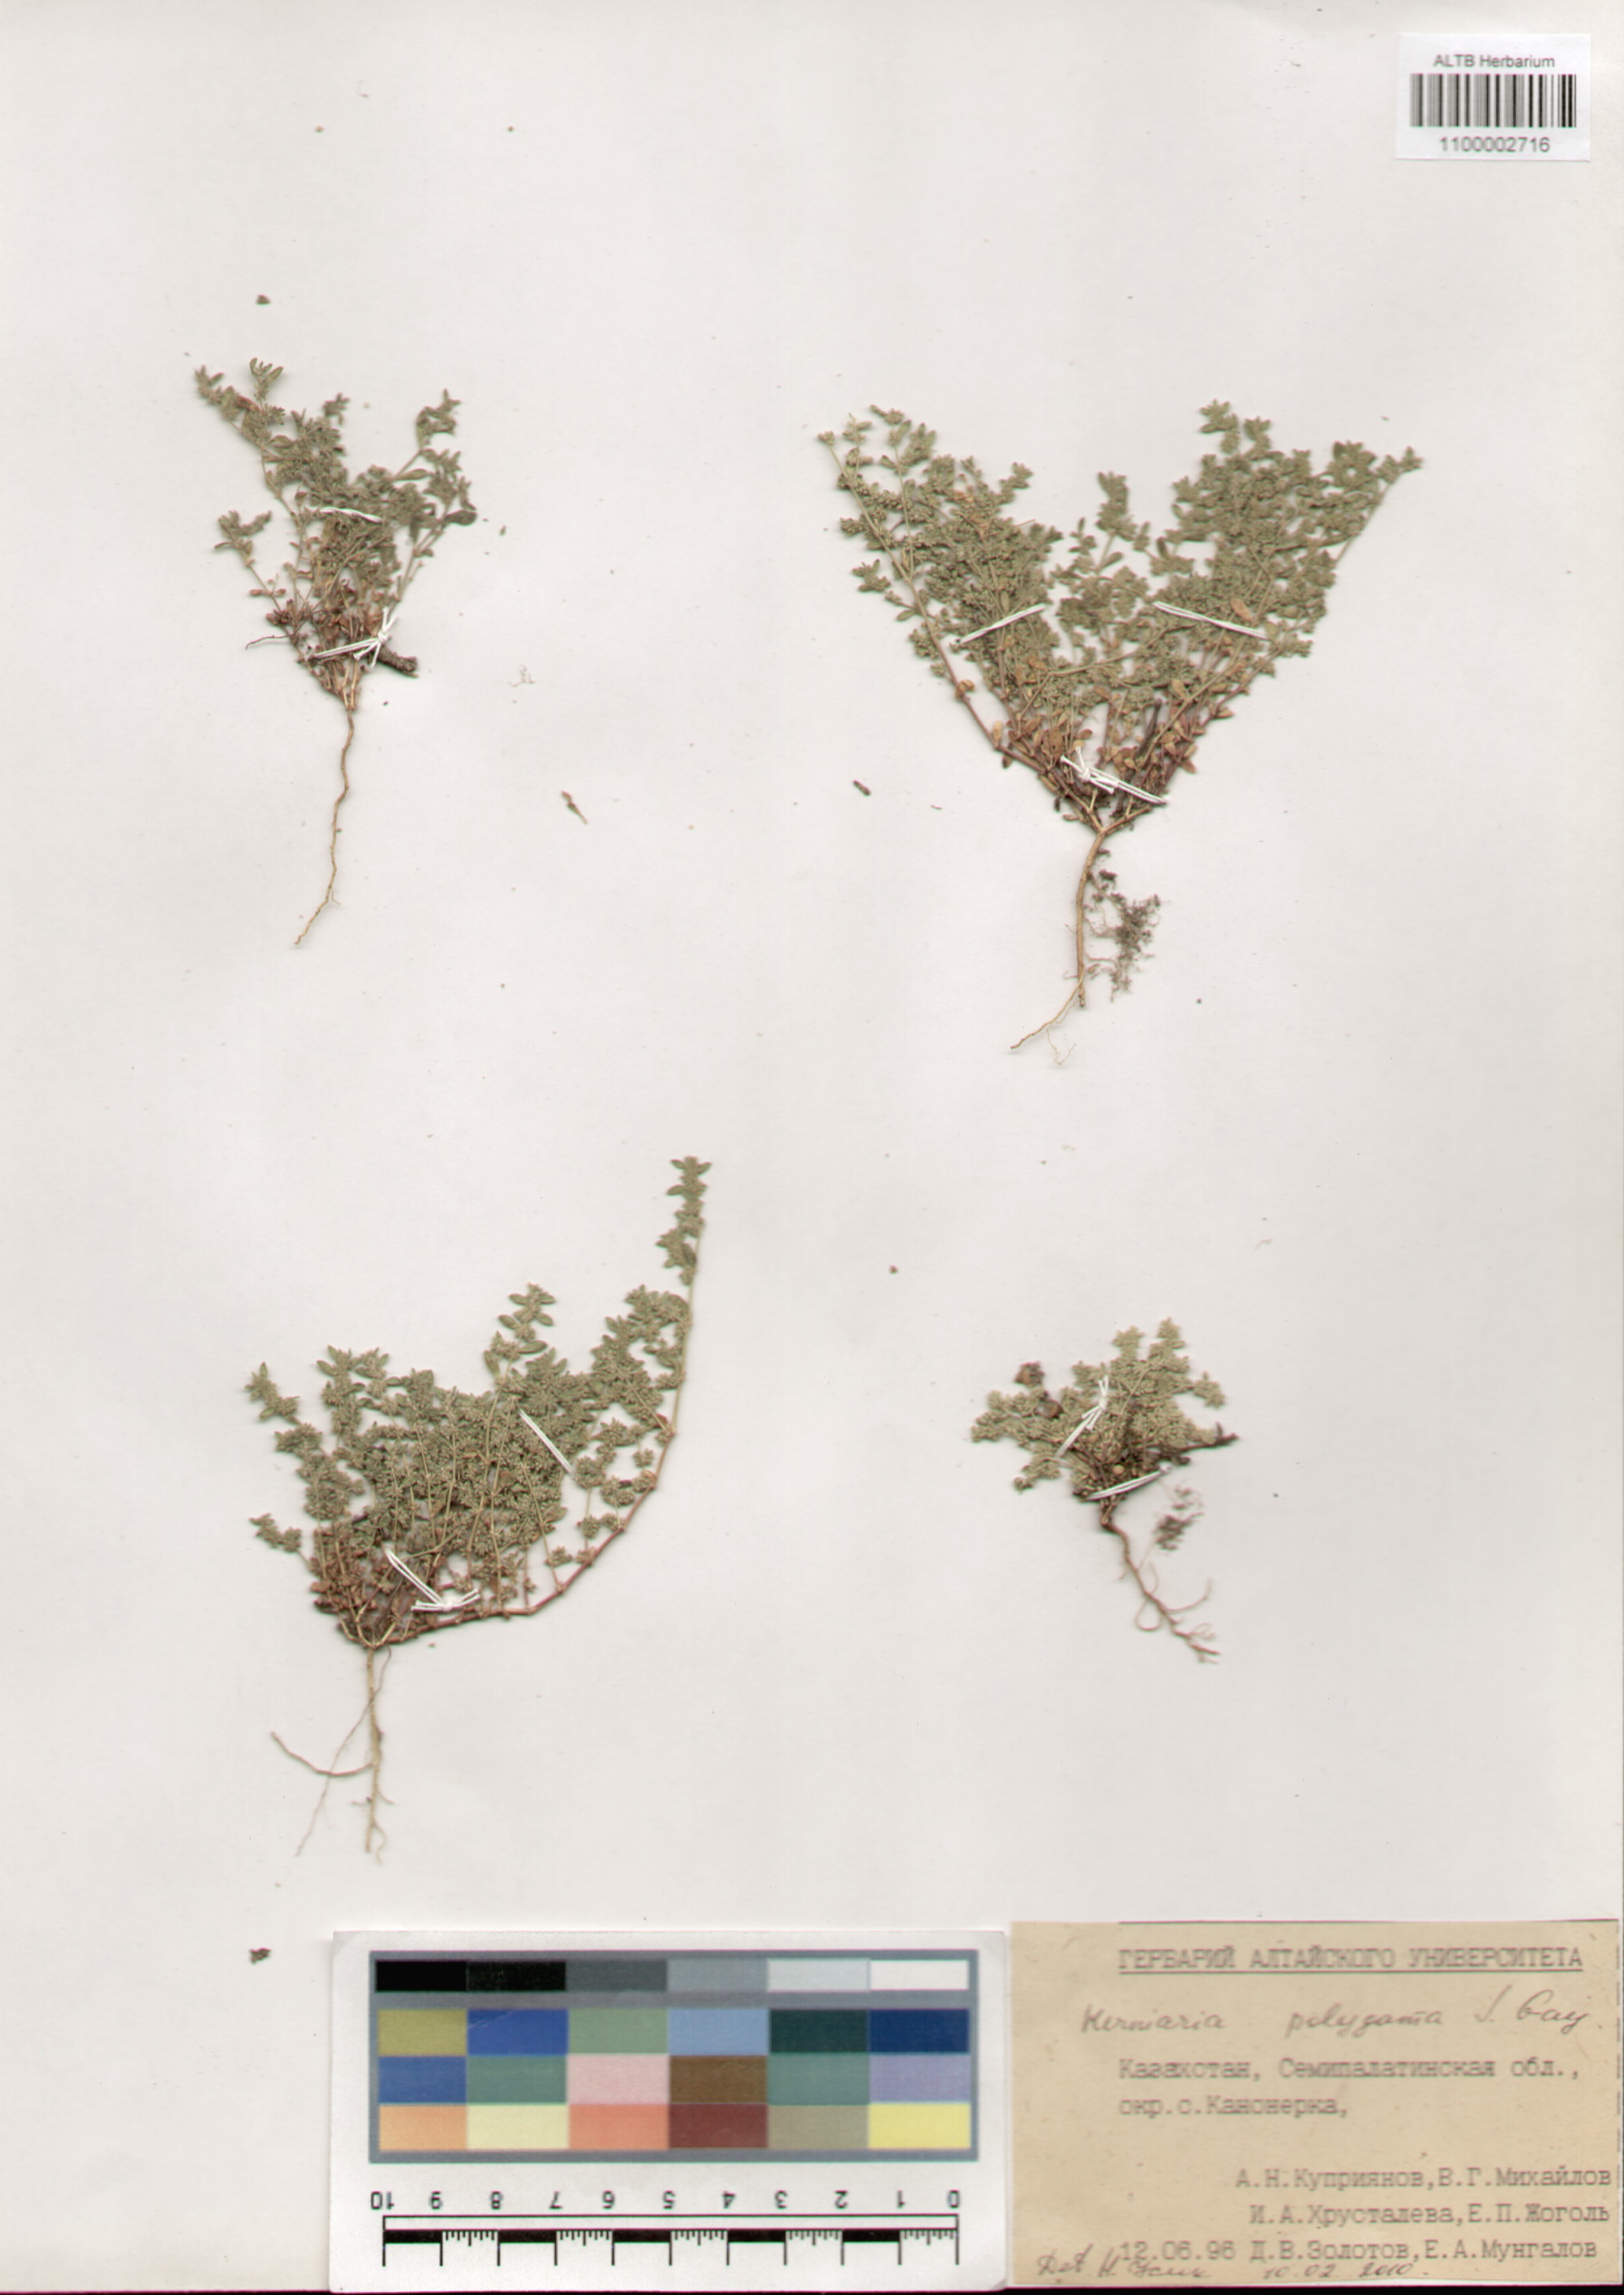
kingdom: Plantae
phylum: Tracheophyta
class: Magnoliopsida
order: Caryophyllales
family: Caryophyllaceae
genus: Herniaria
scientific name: Herniaria polygama
